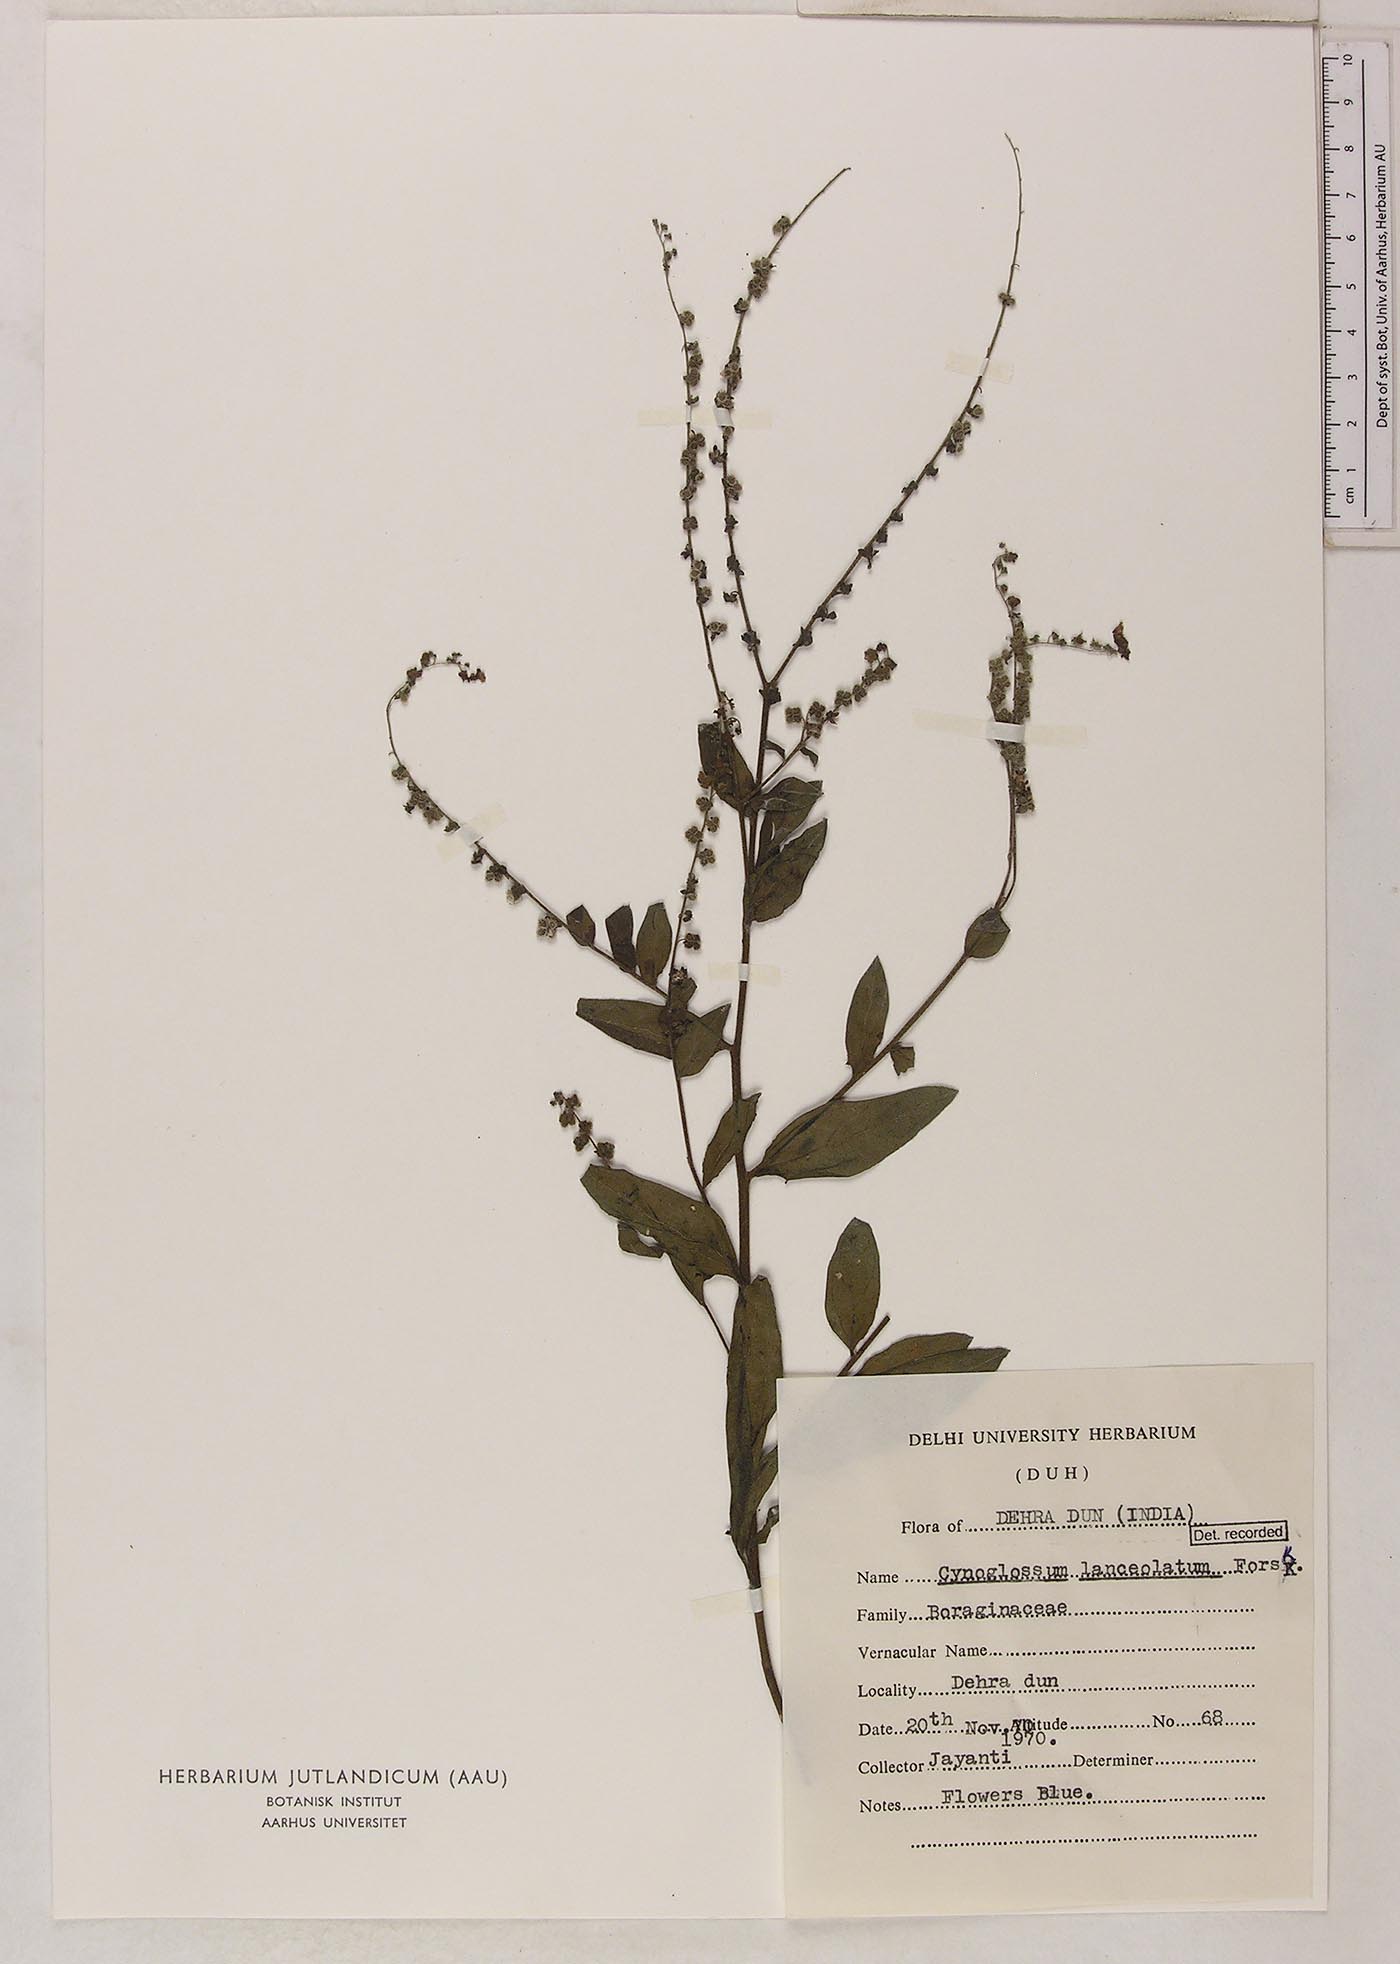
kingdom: Plantae
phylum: Tracheophyta
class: Magnoliopsida
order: Boraginales
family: Boraginaceae
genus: Paracynoglossum
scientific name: Paracynoglossum lanceolatum
